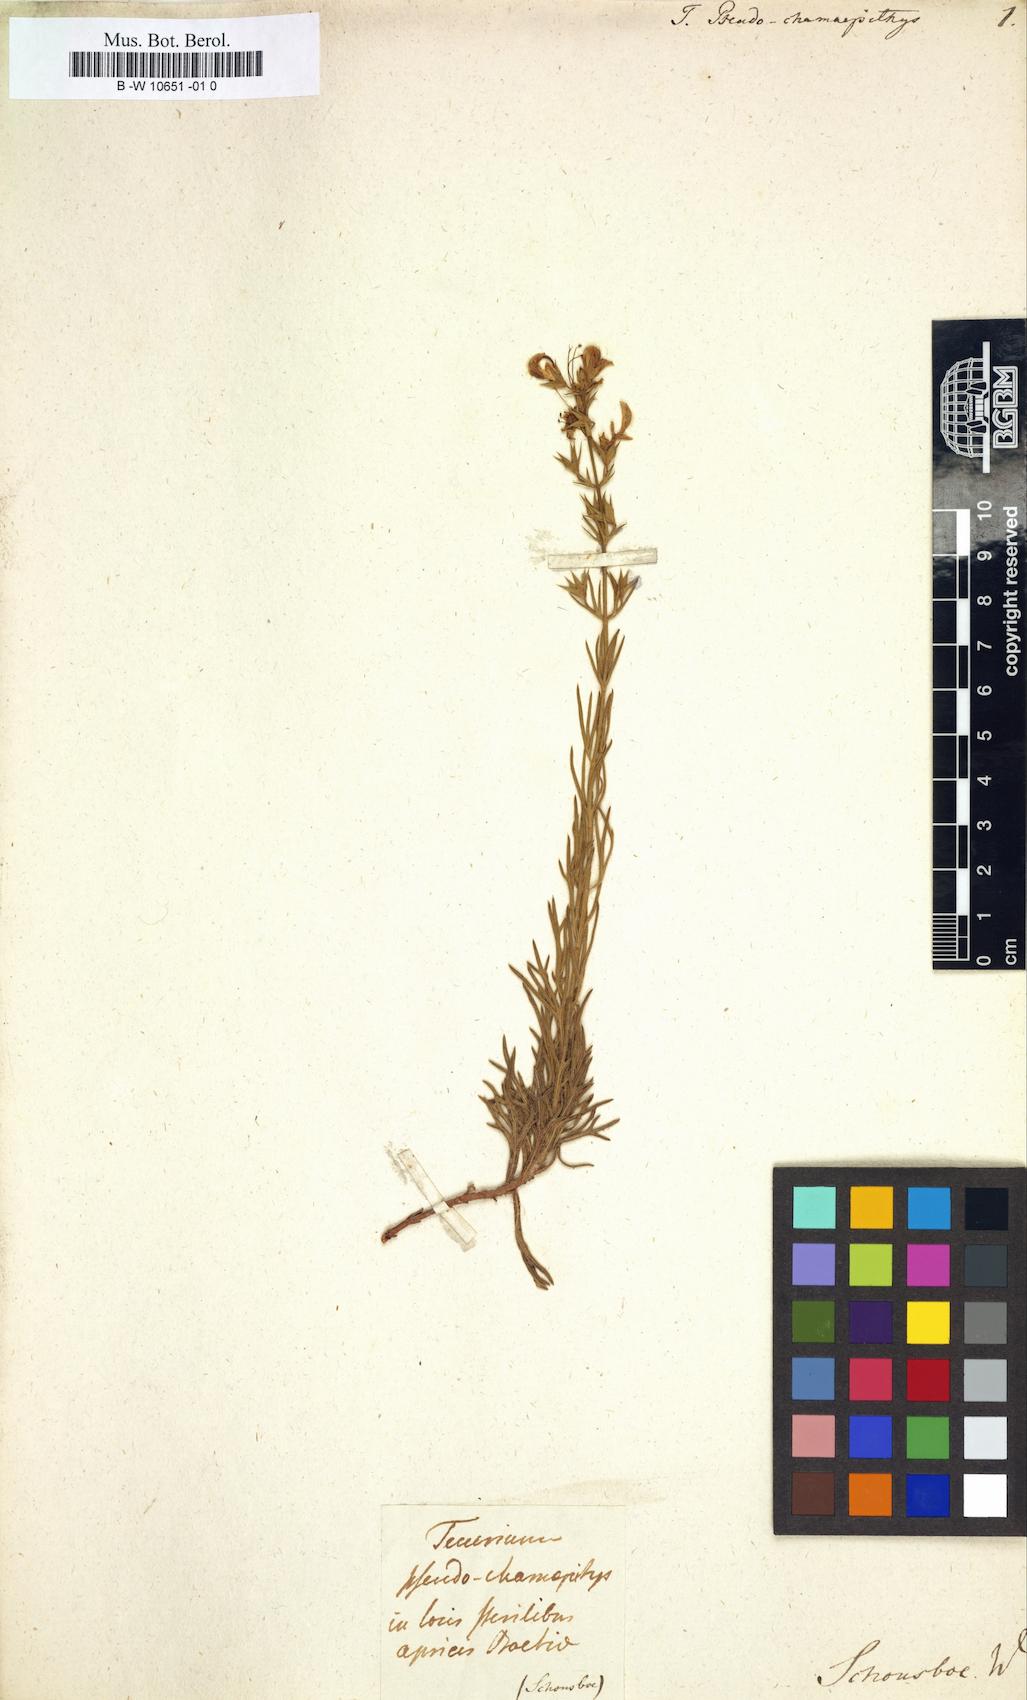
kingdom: Plantae
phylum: Tracheophyta
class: Magnoliopsida
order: Lamiales
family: Lamiaceae
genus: Teucrium
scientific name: Teucrium pseudochamaepitys
